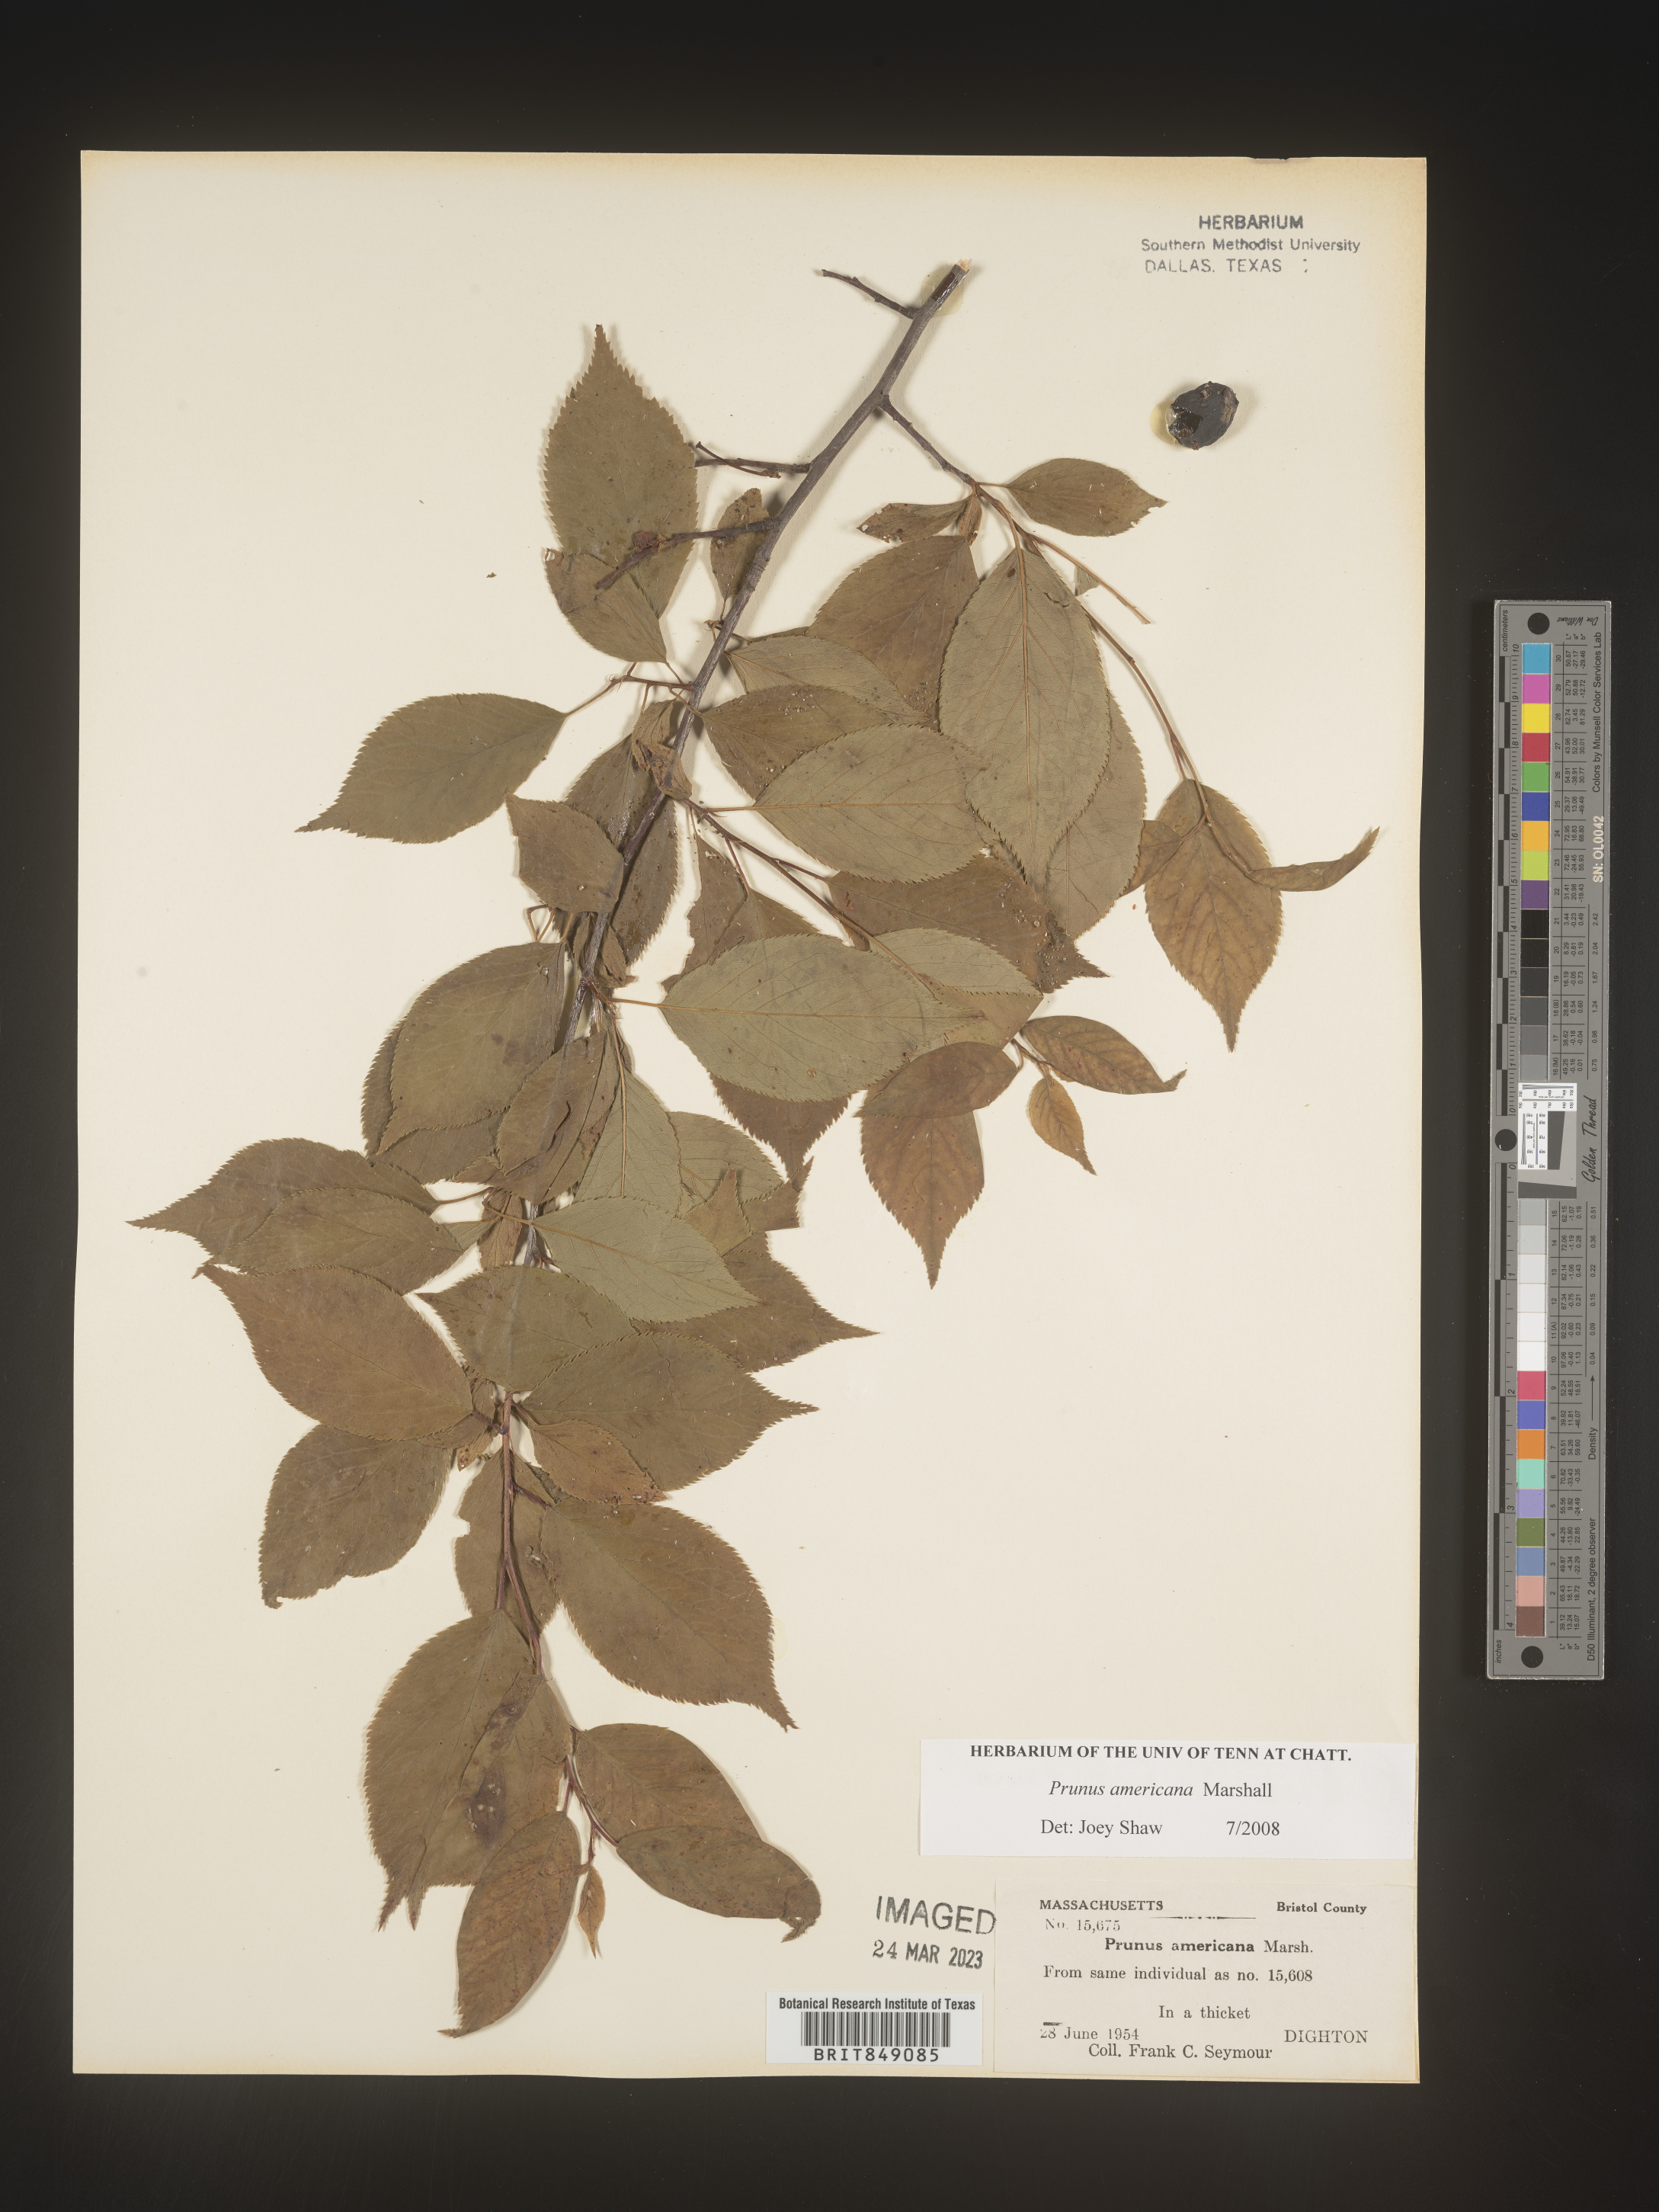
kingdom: Plantae
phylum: Tracheophyta
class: Magnoliopsida
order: Rosales
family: Rosaceae
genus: Prunus
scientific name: Prunus americana
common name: American plum
